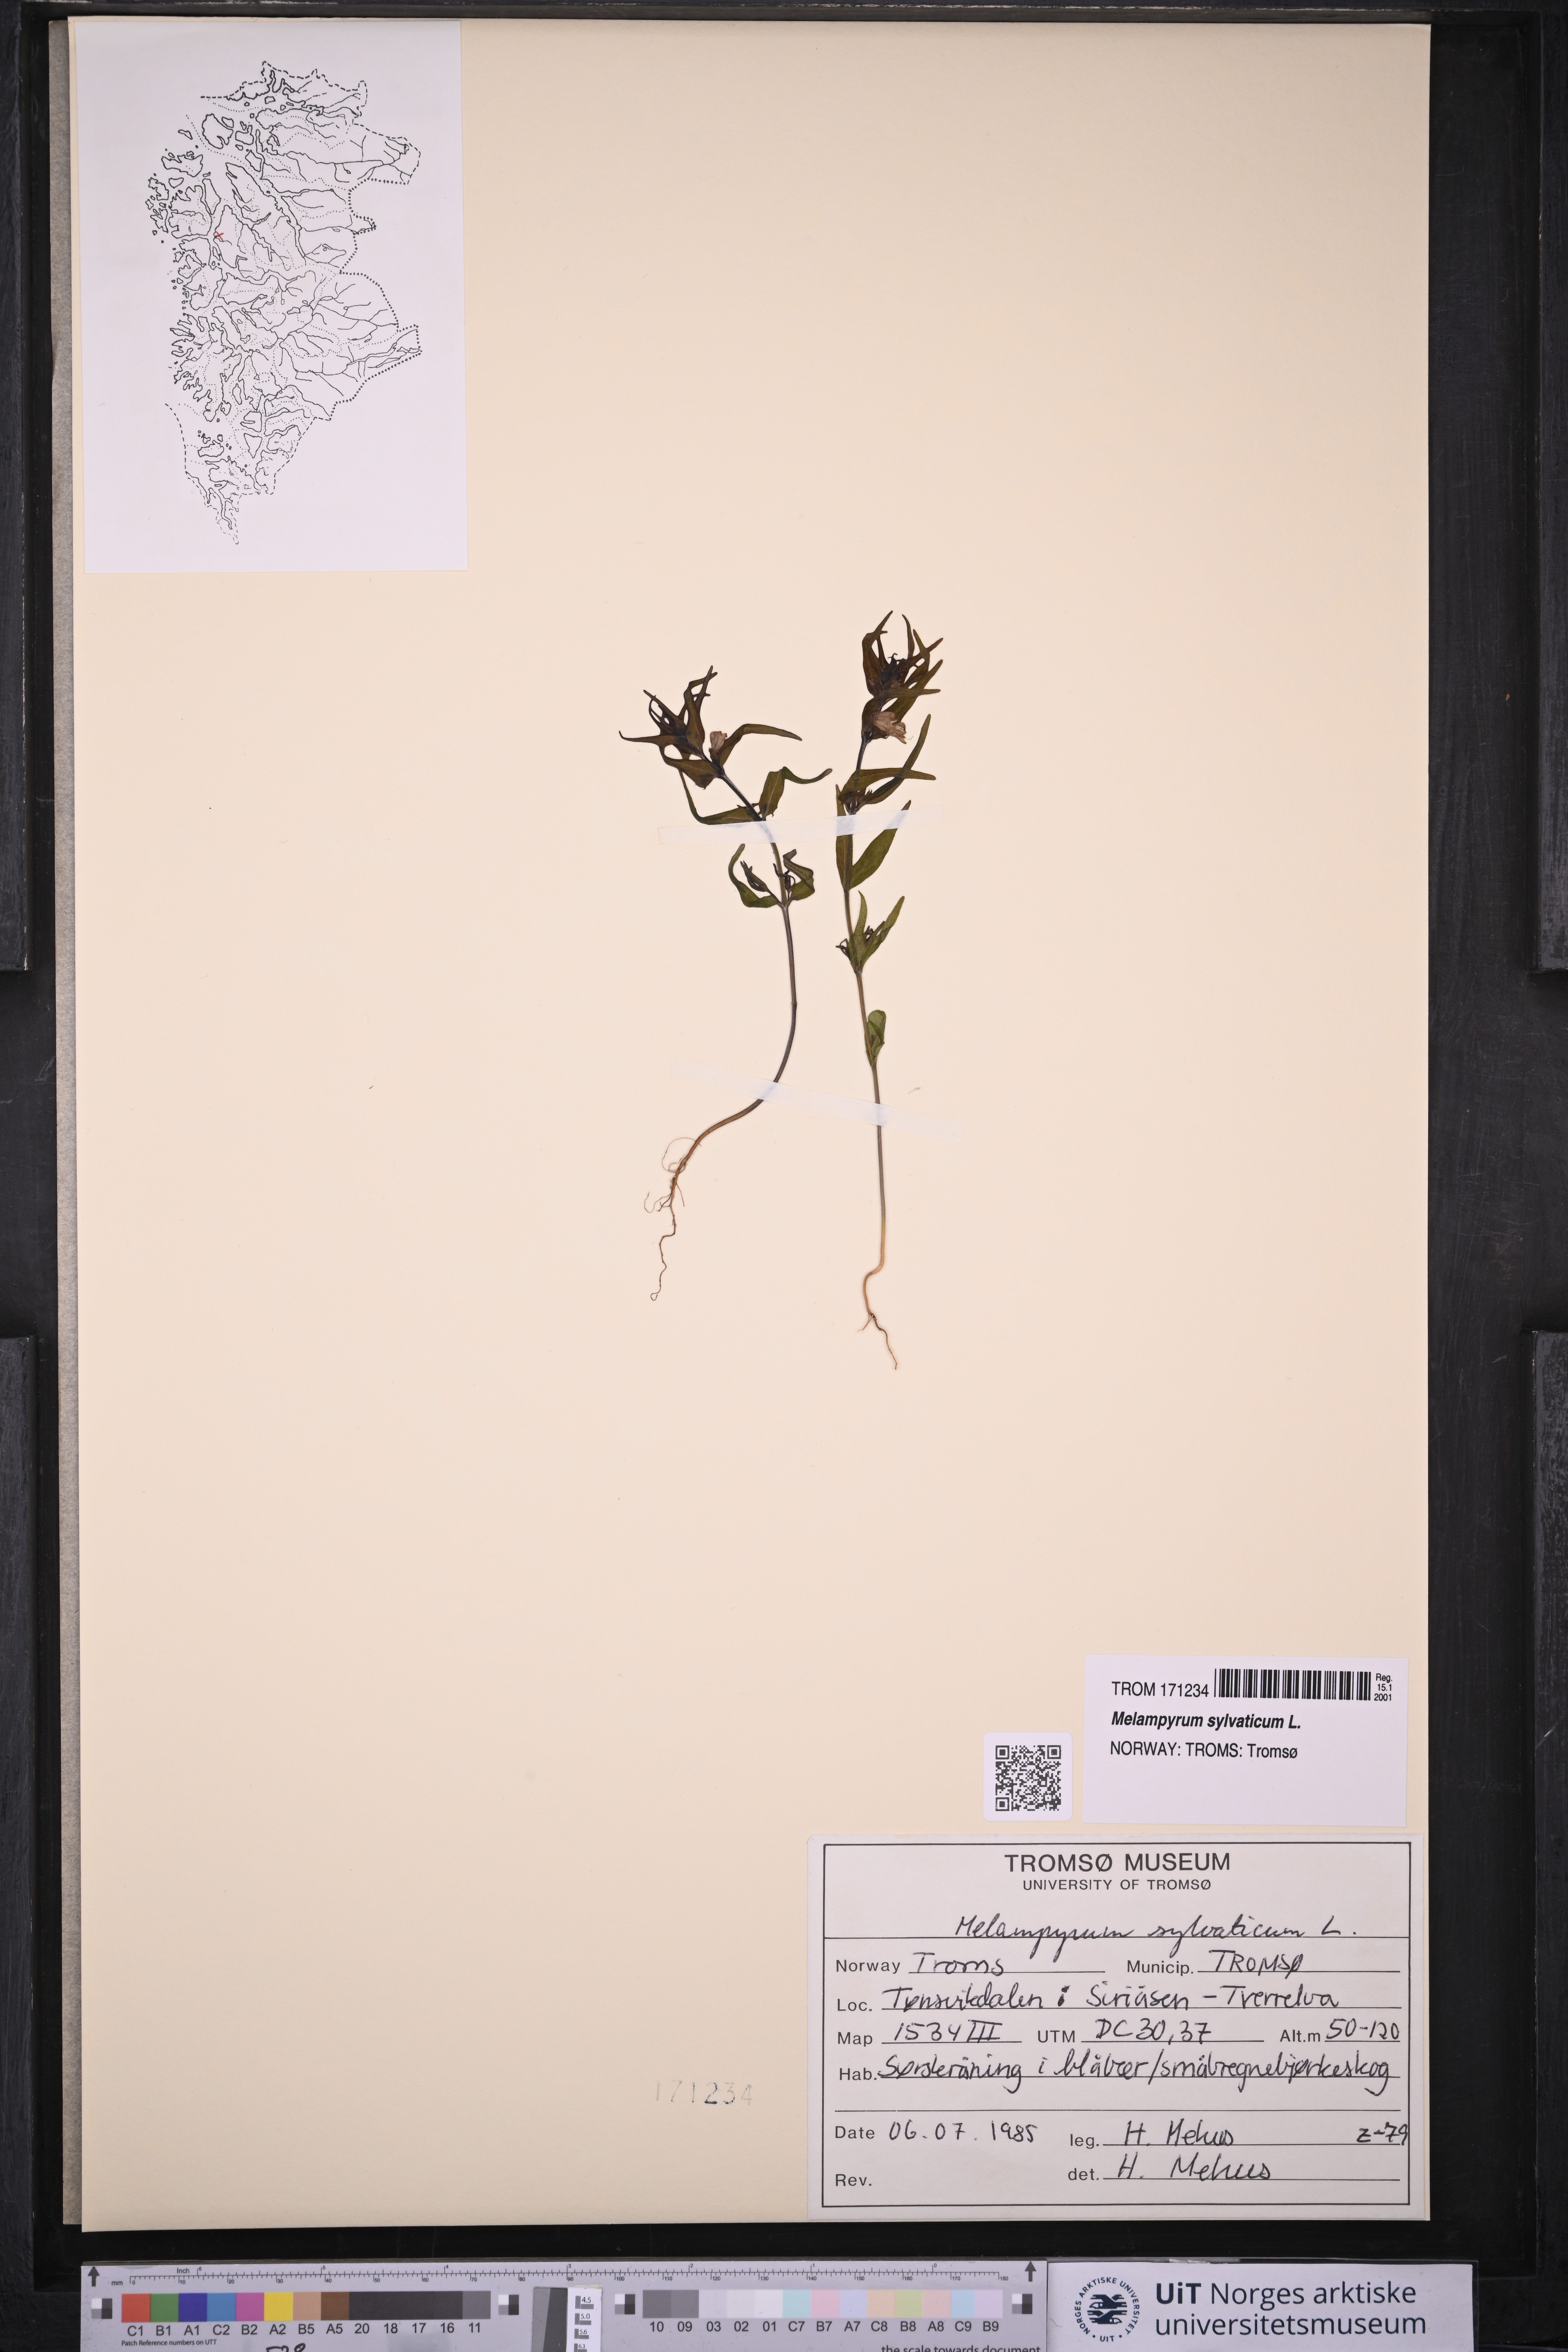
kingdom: Plantae
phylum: Tracheophyta
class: Magnoliopsida
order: Lamiales
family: Orobanchaceae
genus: Melampyrum
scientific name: Melampyrum sylvaticum
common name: Small cow-wheat
